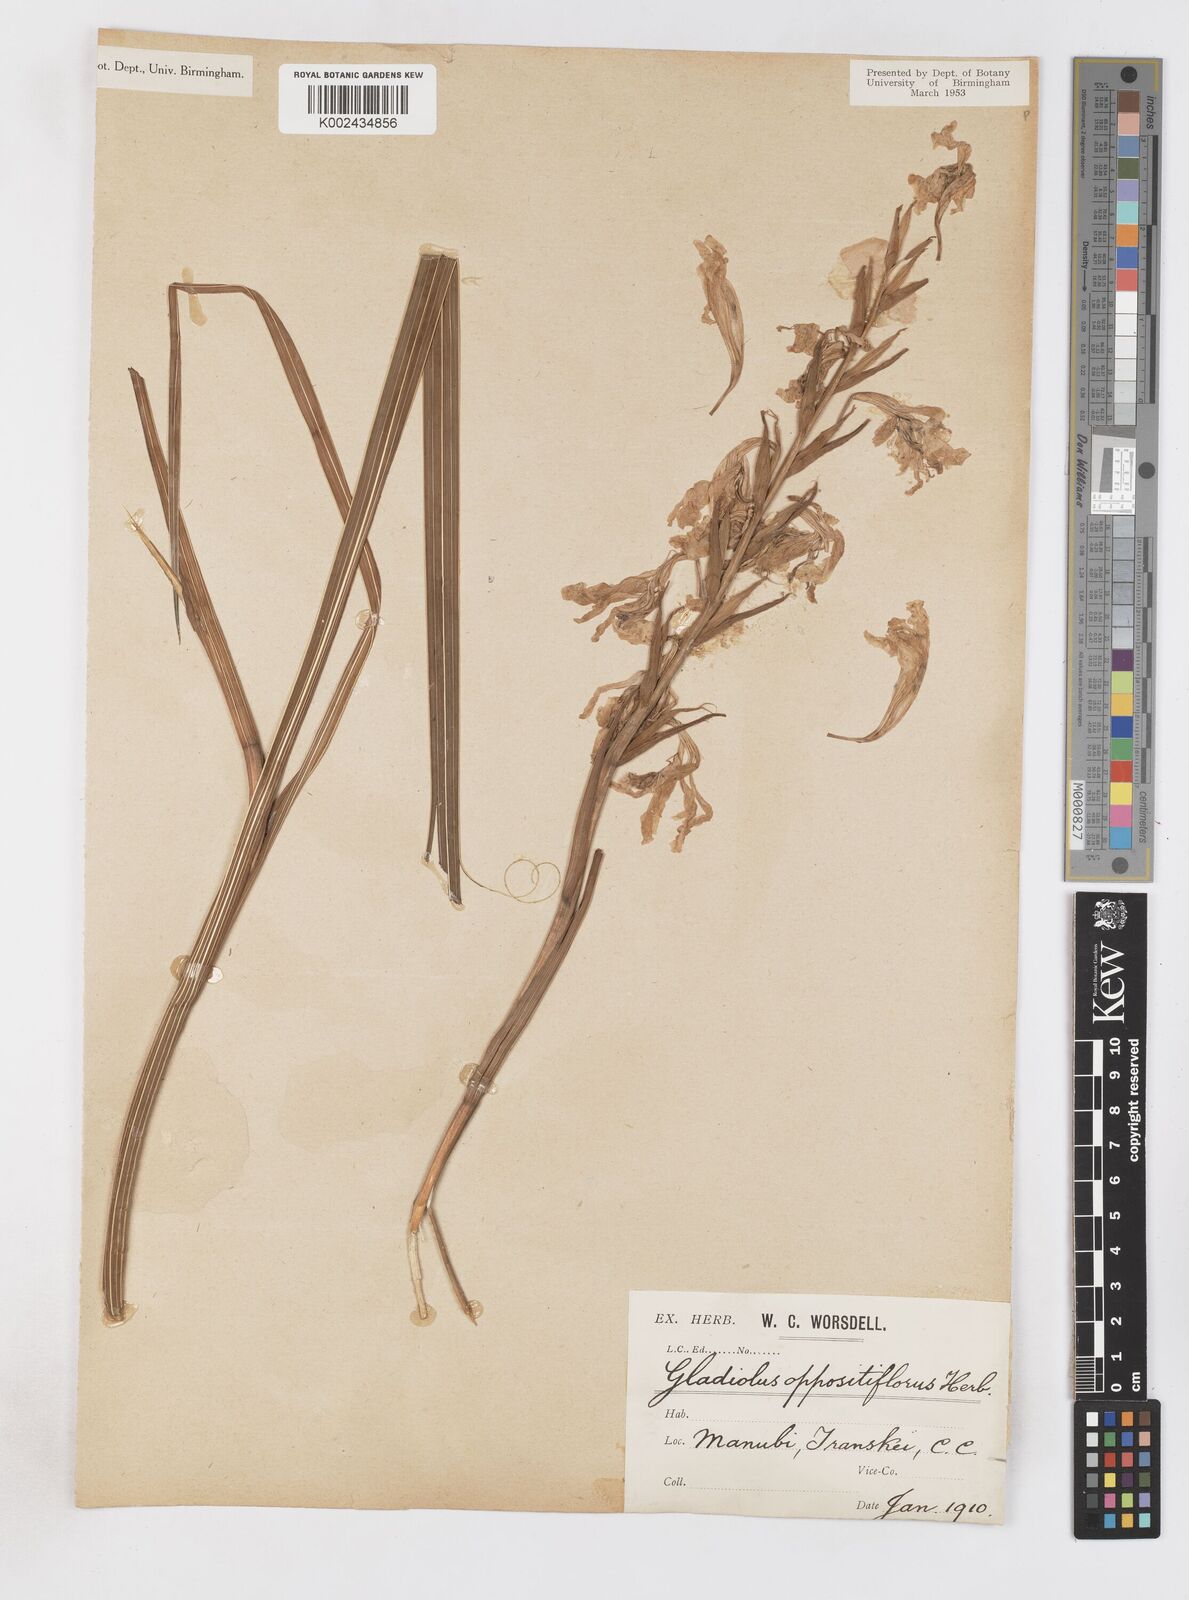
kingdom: Plantae
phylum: Tracheophyta
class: Liliopsida
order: Asparagales
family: Iridaceae
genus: Gladiolus
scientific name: Gladiolus oppositiflorus
